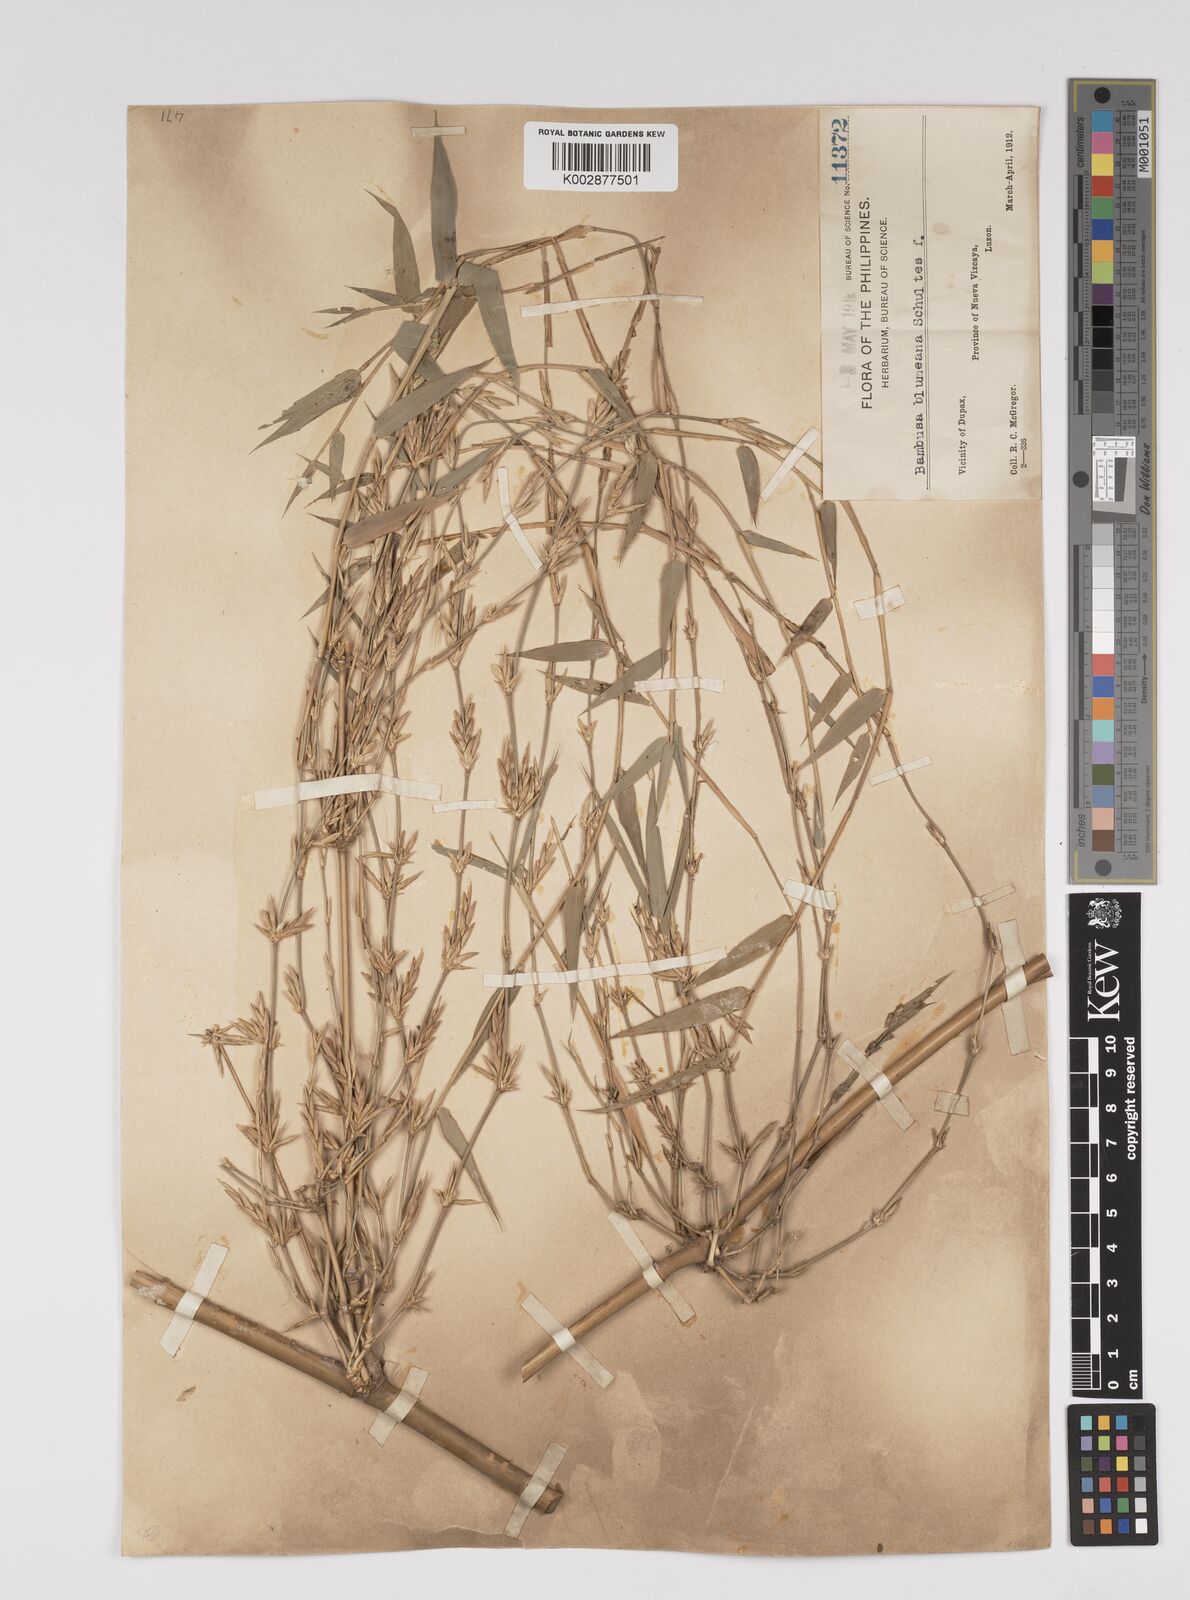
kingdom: Plantae
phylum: Tracheophyta
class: Liliopsida
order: Poales
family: Poaceae
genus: Bambusa
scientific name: Bambusa spinosa
